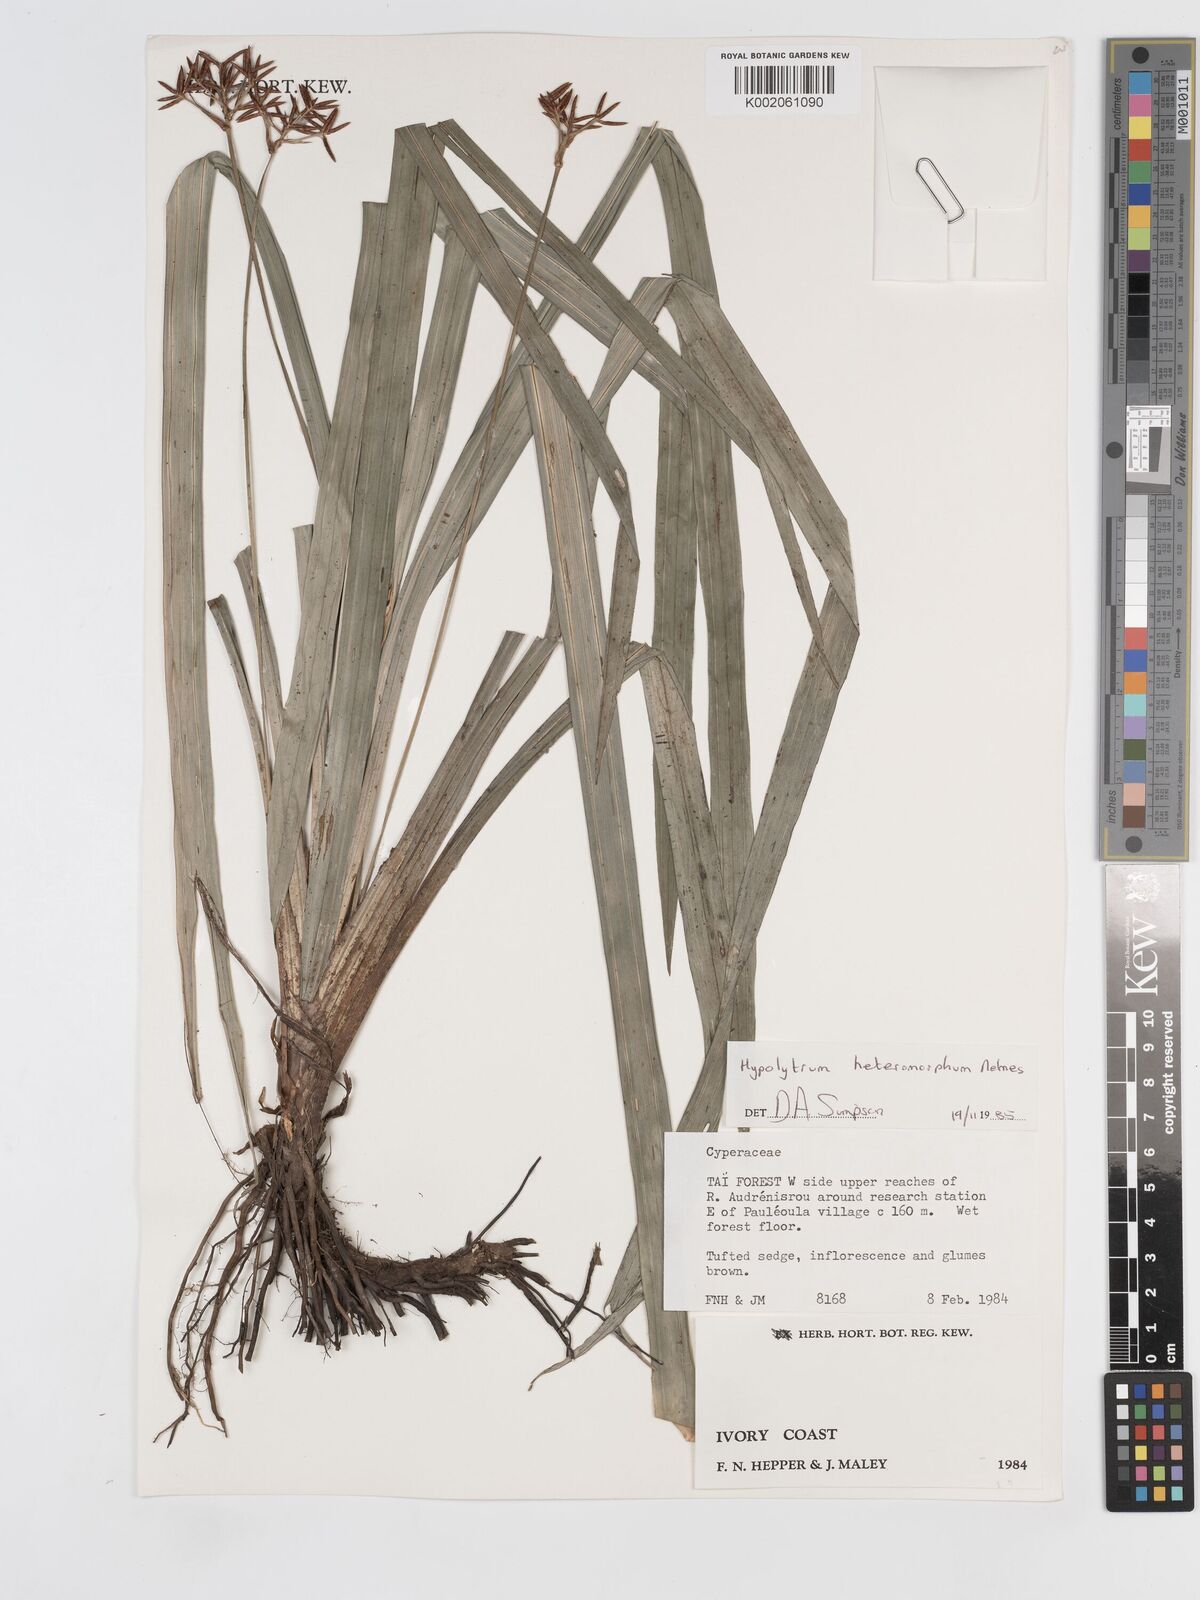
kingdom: Plantae
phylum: Tracheophyta
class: Liliopsida
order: Poales
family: Cyperaceae
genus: Hypolytrum
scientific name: Hypolytrum heteromorphum
